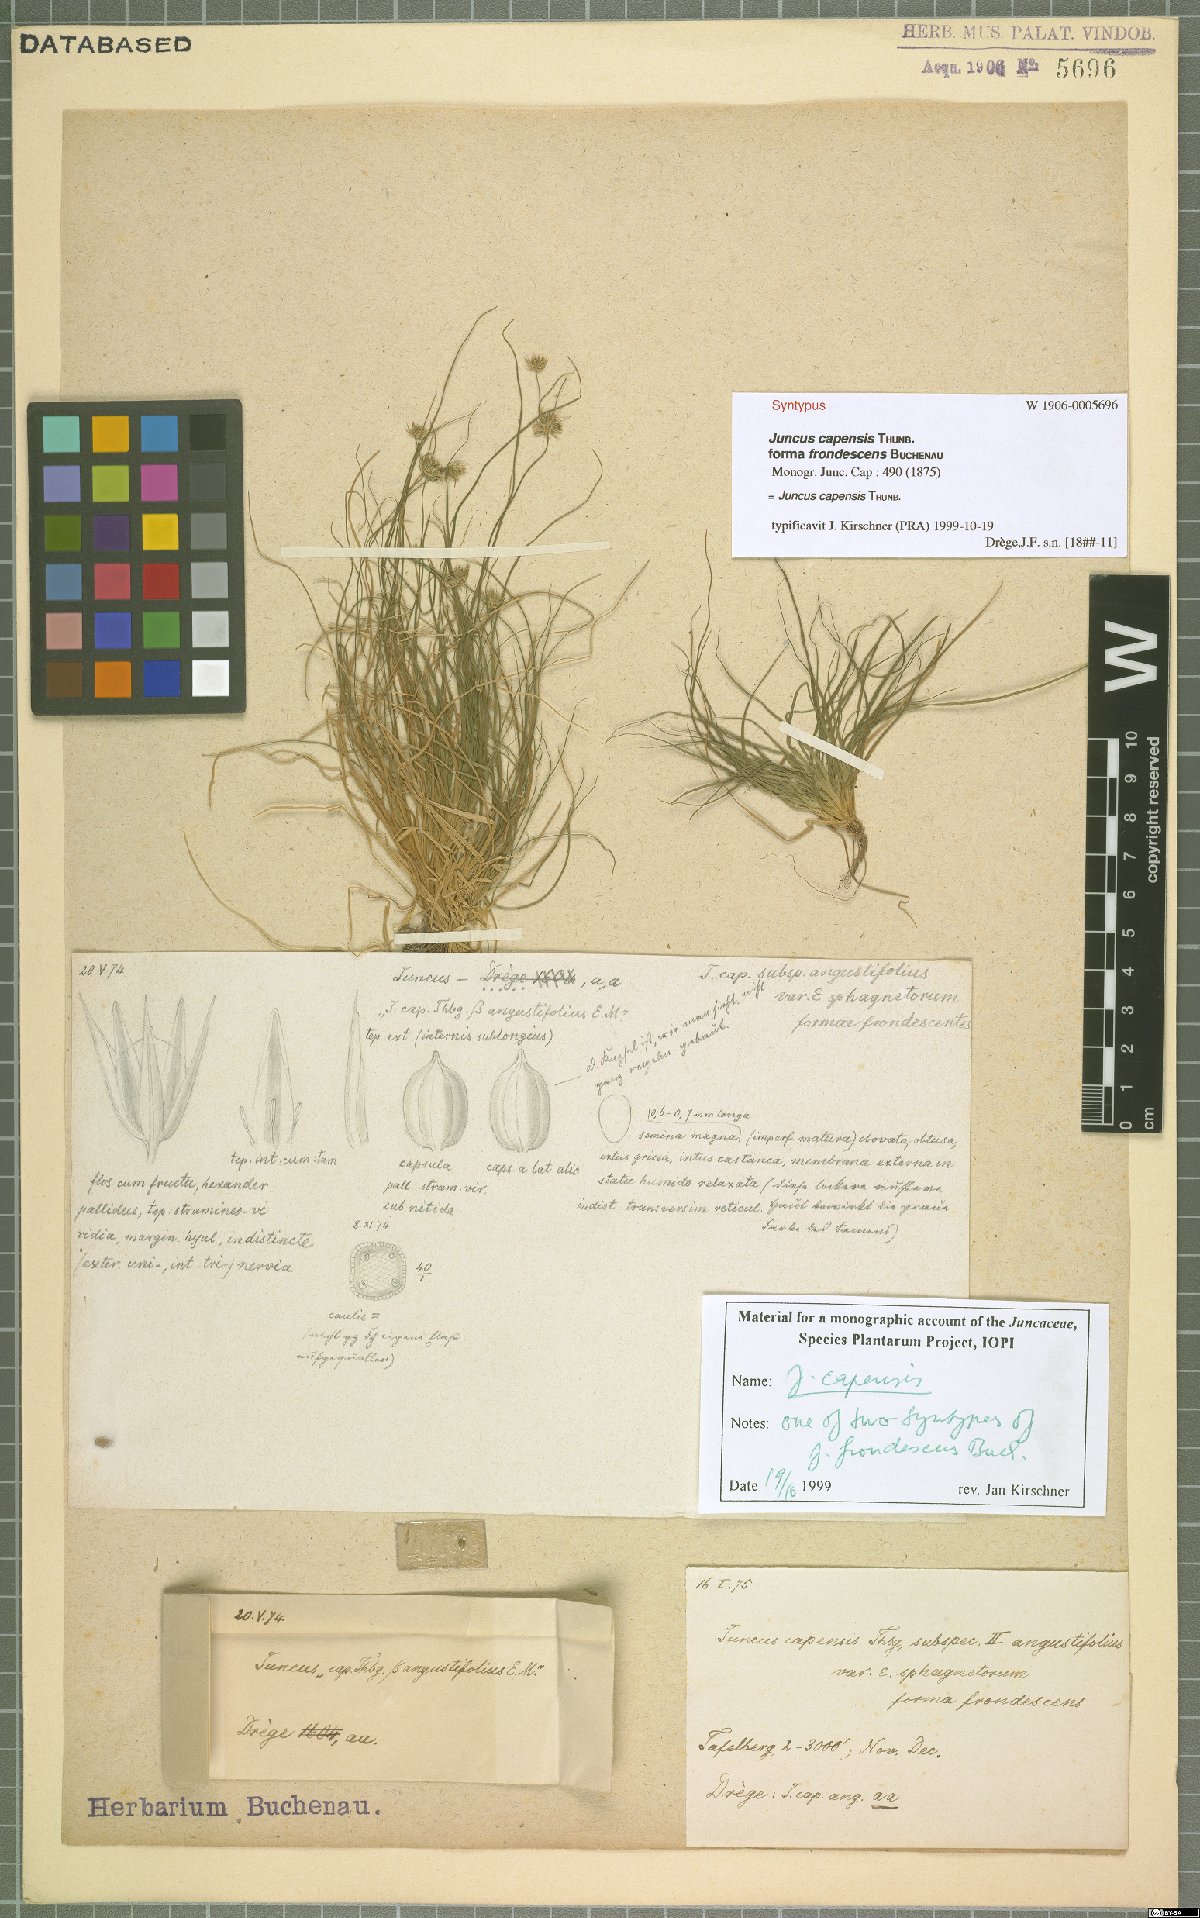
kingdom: Plantae
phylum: Tracheophyta
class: Liliopsida
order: Poales
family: Juncaceae
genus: Juncus
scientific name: Juncus capensis
